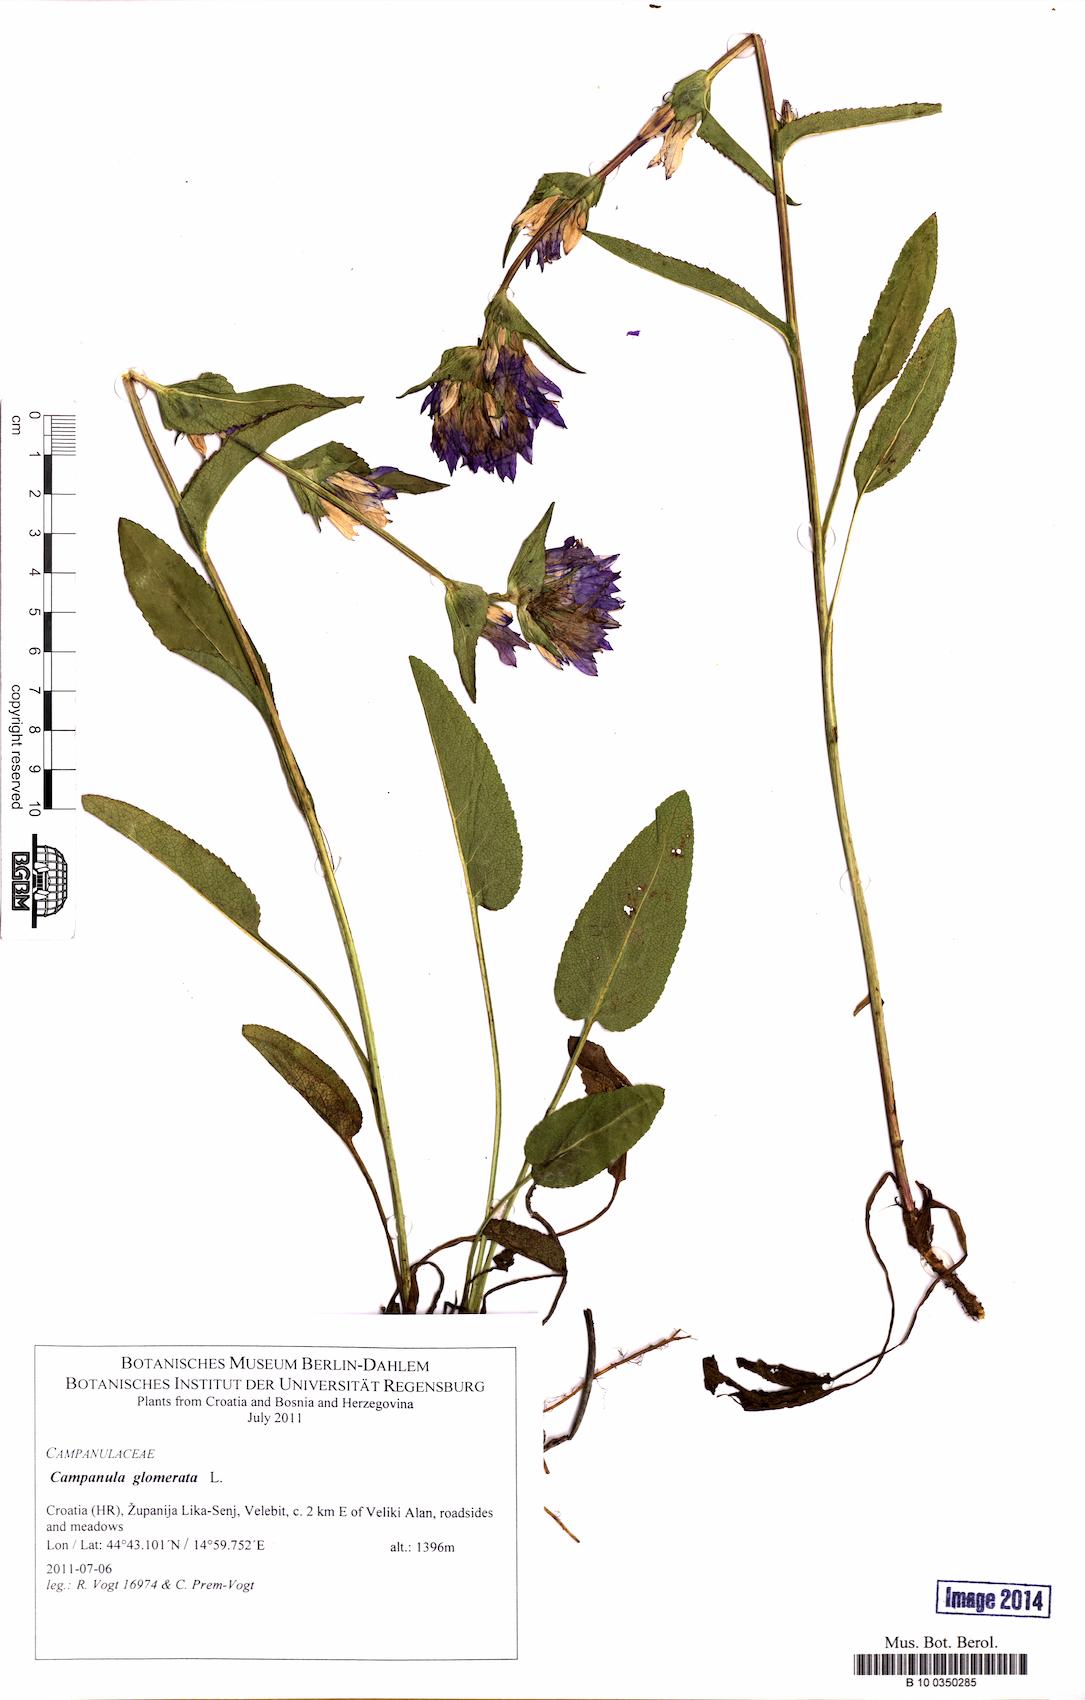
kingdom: Plantae
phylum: Tracheophyta
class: Magnoliopsida
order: Asterales
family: Campanulaceae
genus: Campanula
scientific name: Campanula glomerata
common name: Clustered bellflower
